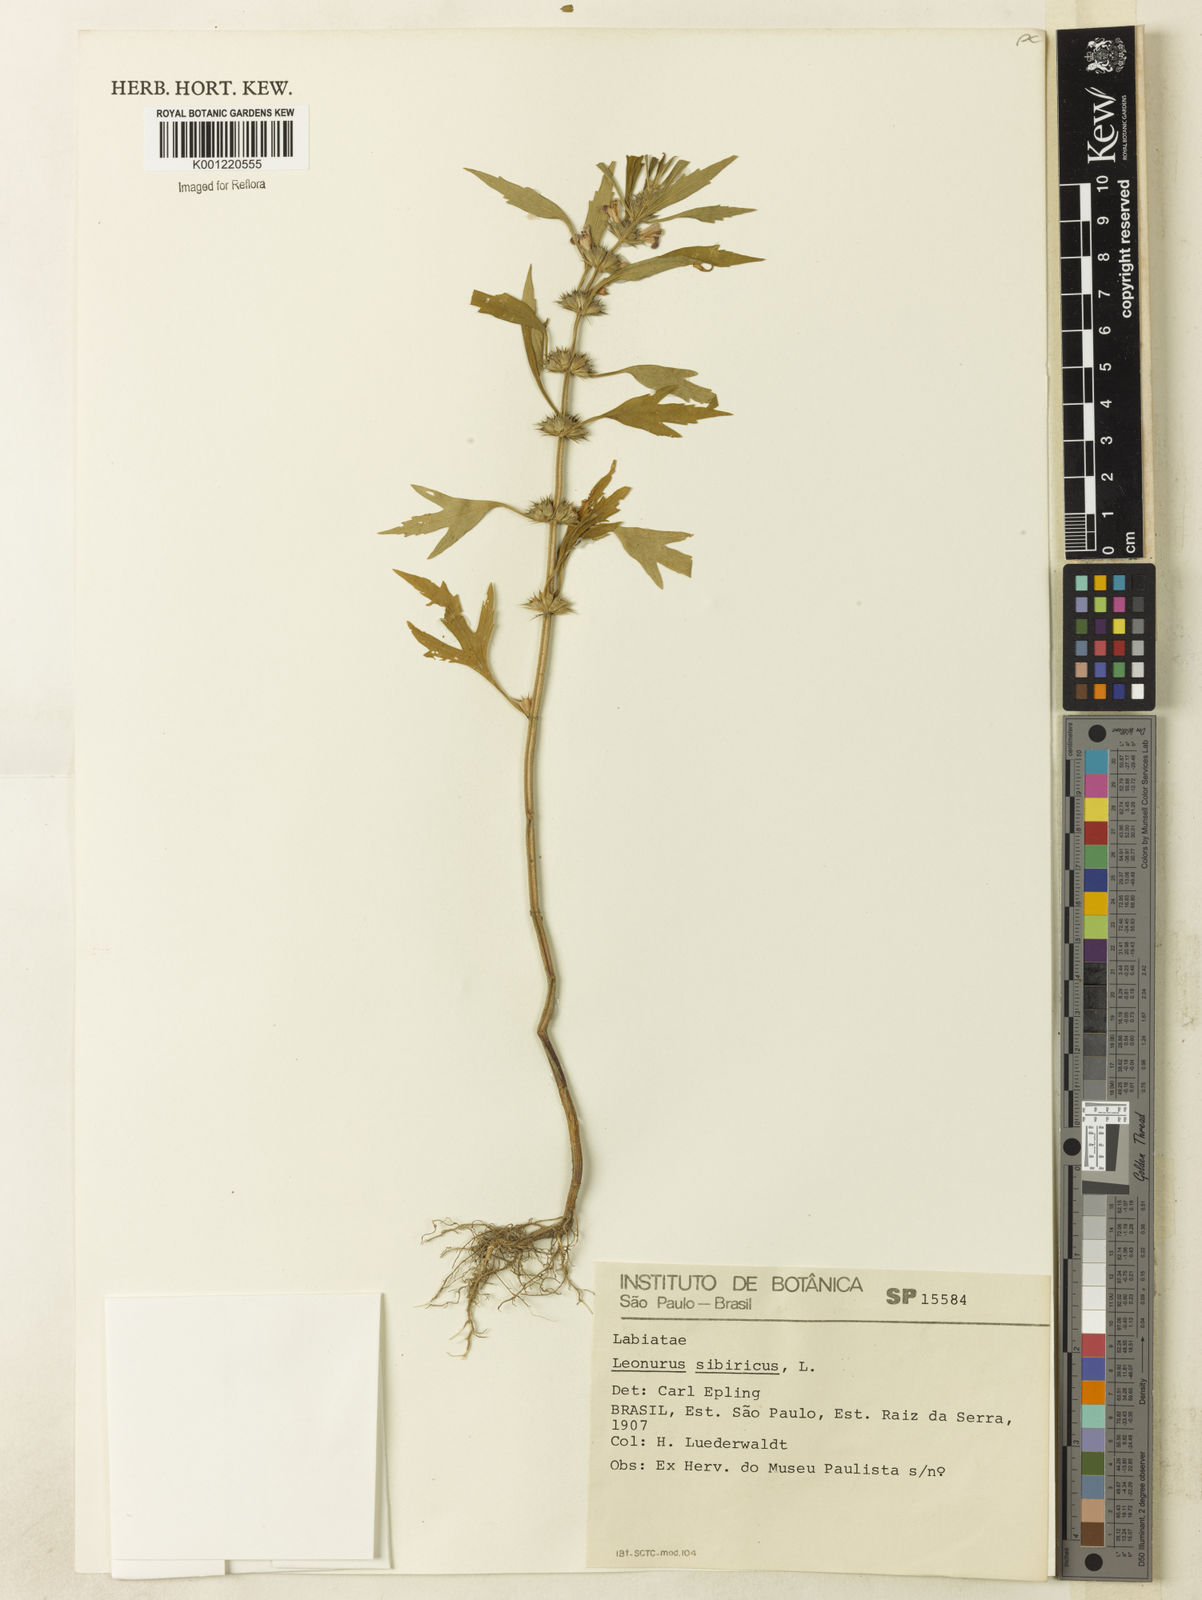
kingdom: Plantae
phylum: Tracheophyta
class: Magnoliopsida
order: Lamiales
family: Lamiaceae
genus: Leonurus
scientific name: Leonurus japonicus
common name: Honeyweed
